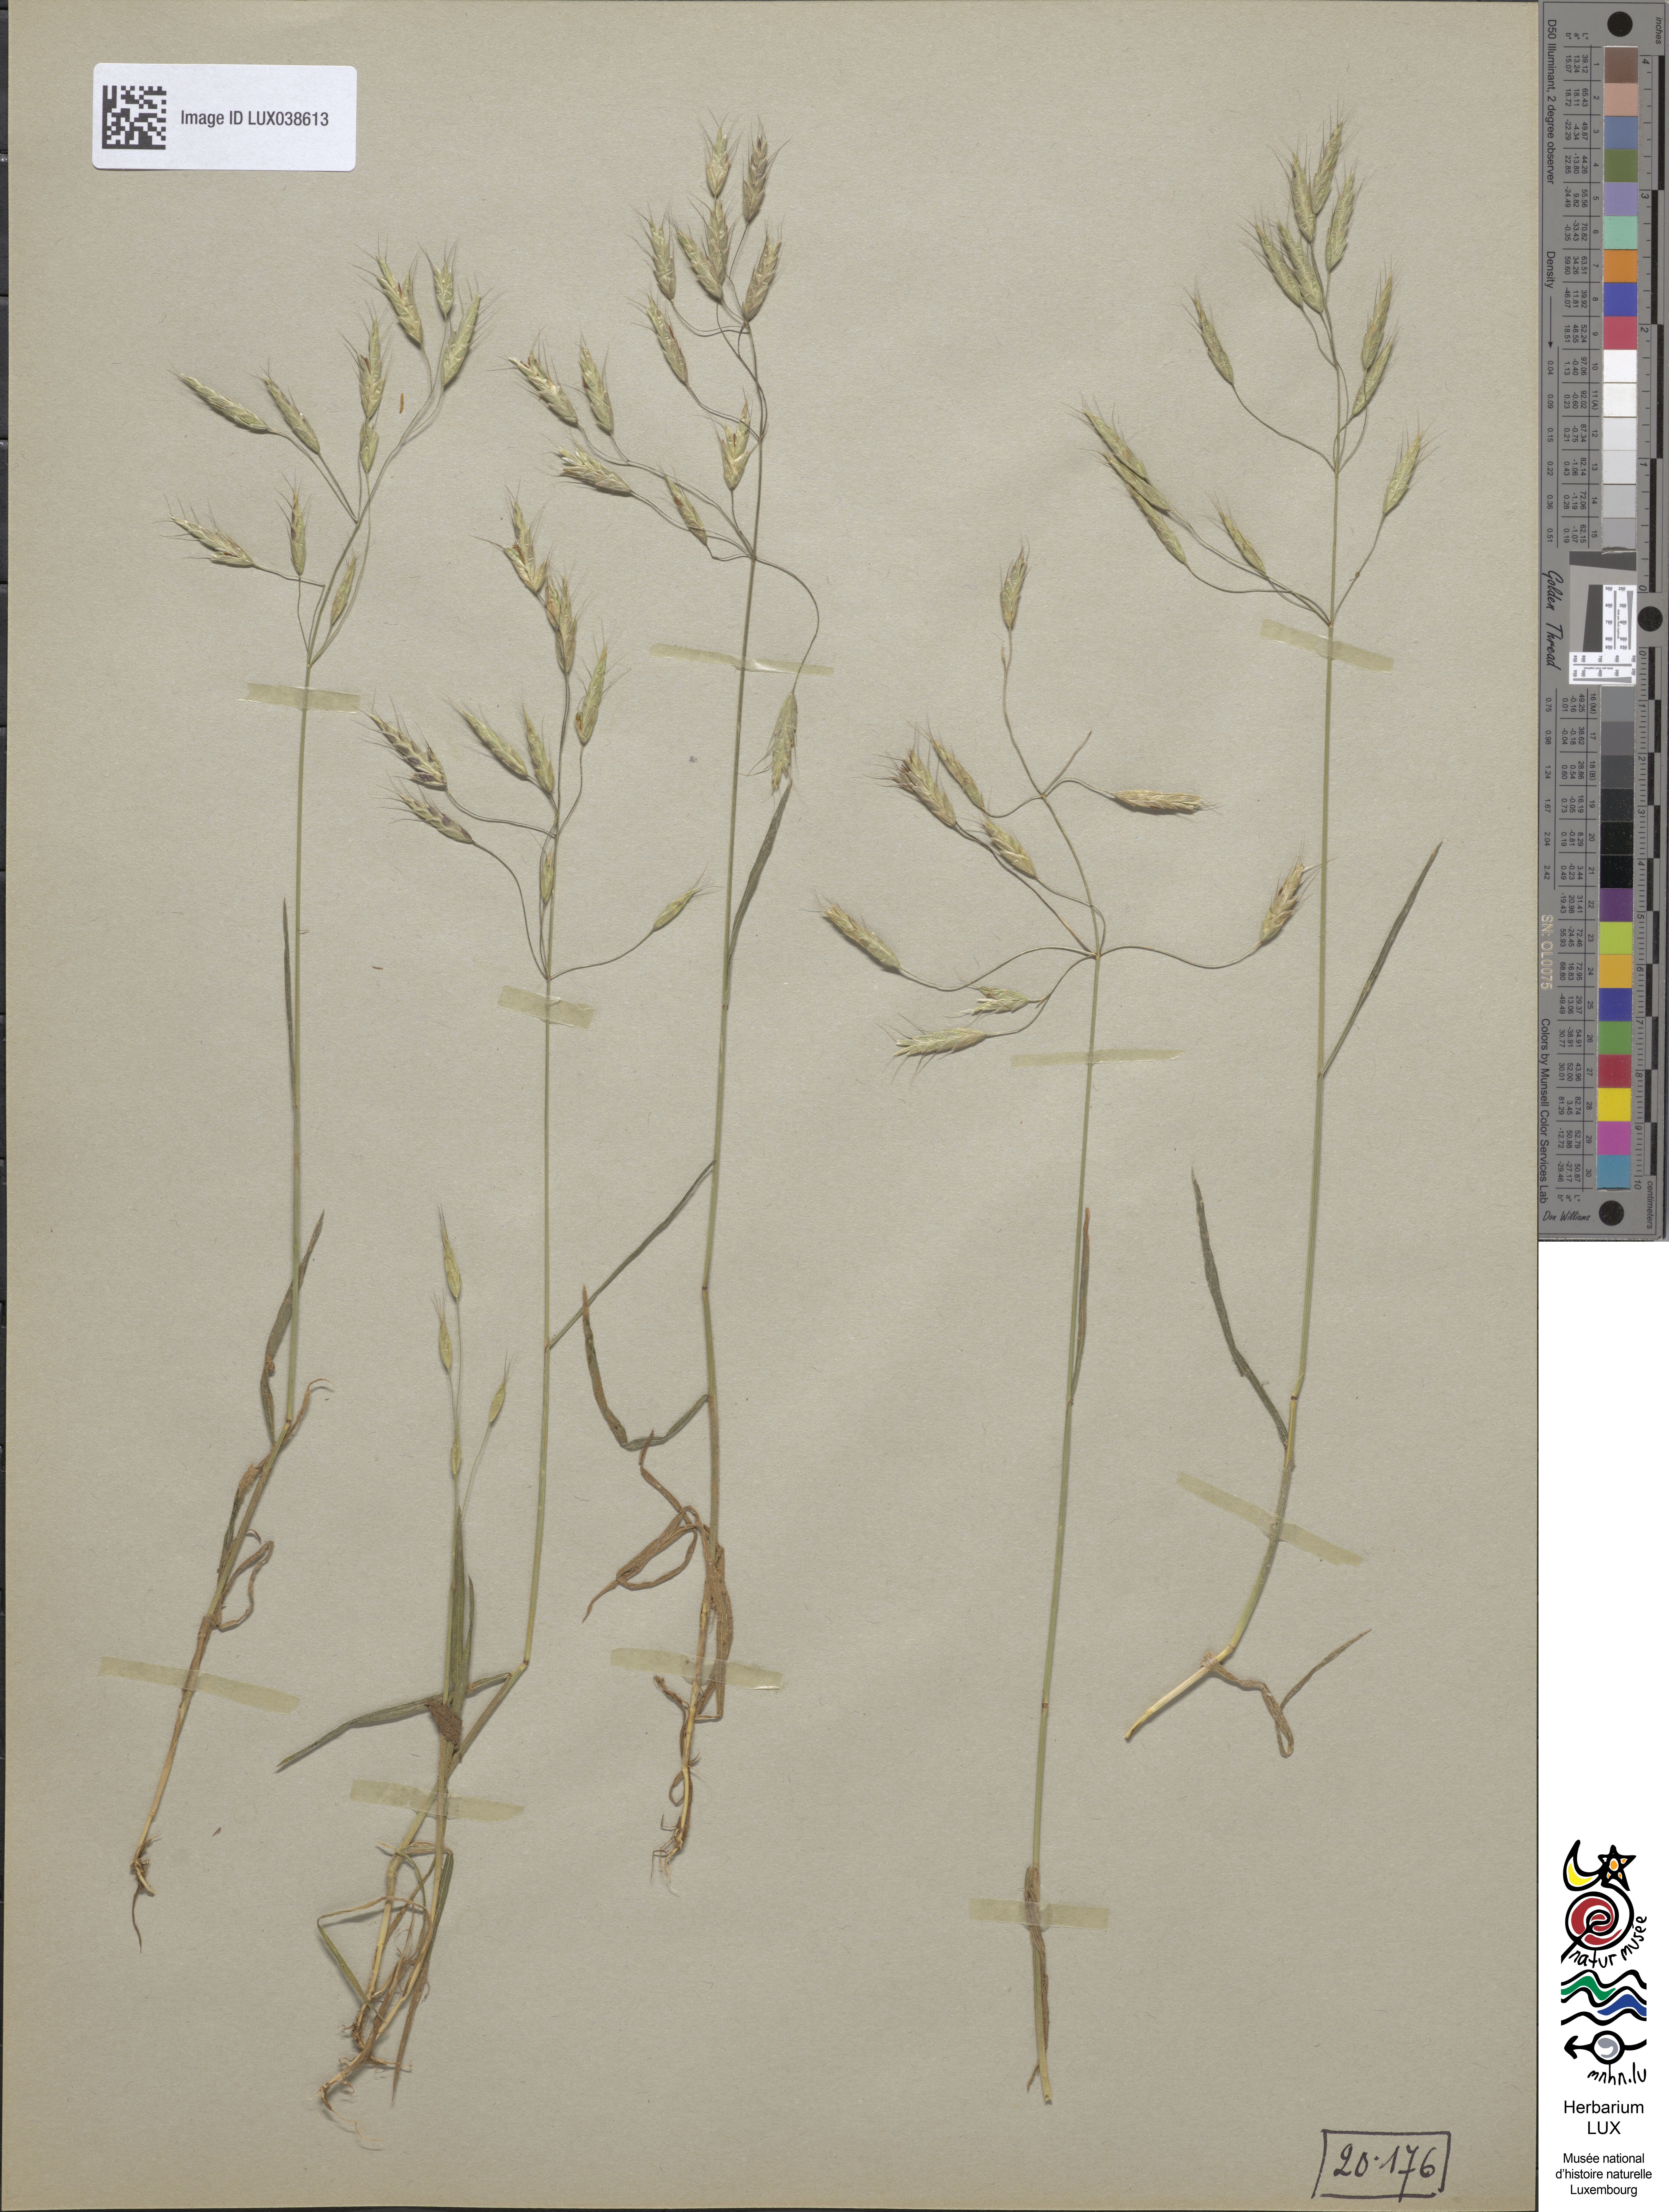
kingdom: Plantae
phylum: Tracheophyta
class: Liliopsida
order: Poales
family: Poaceae
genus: Bromus
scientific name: Bromus arvensis
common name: Field brome
